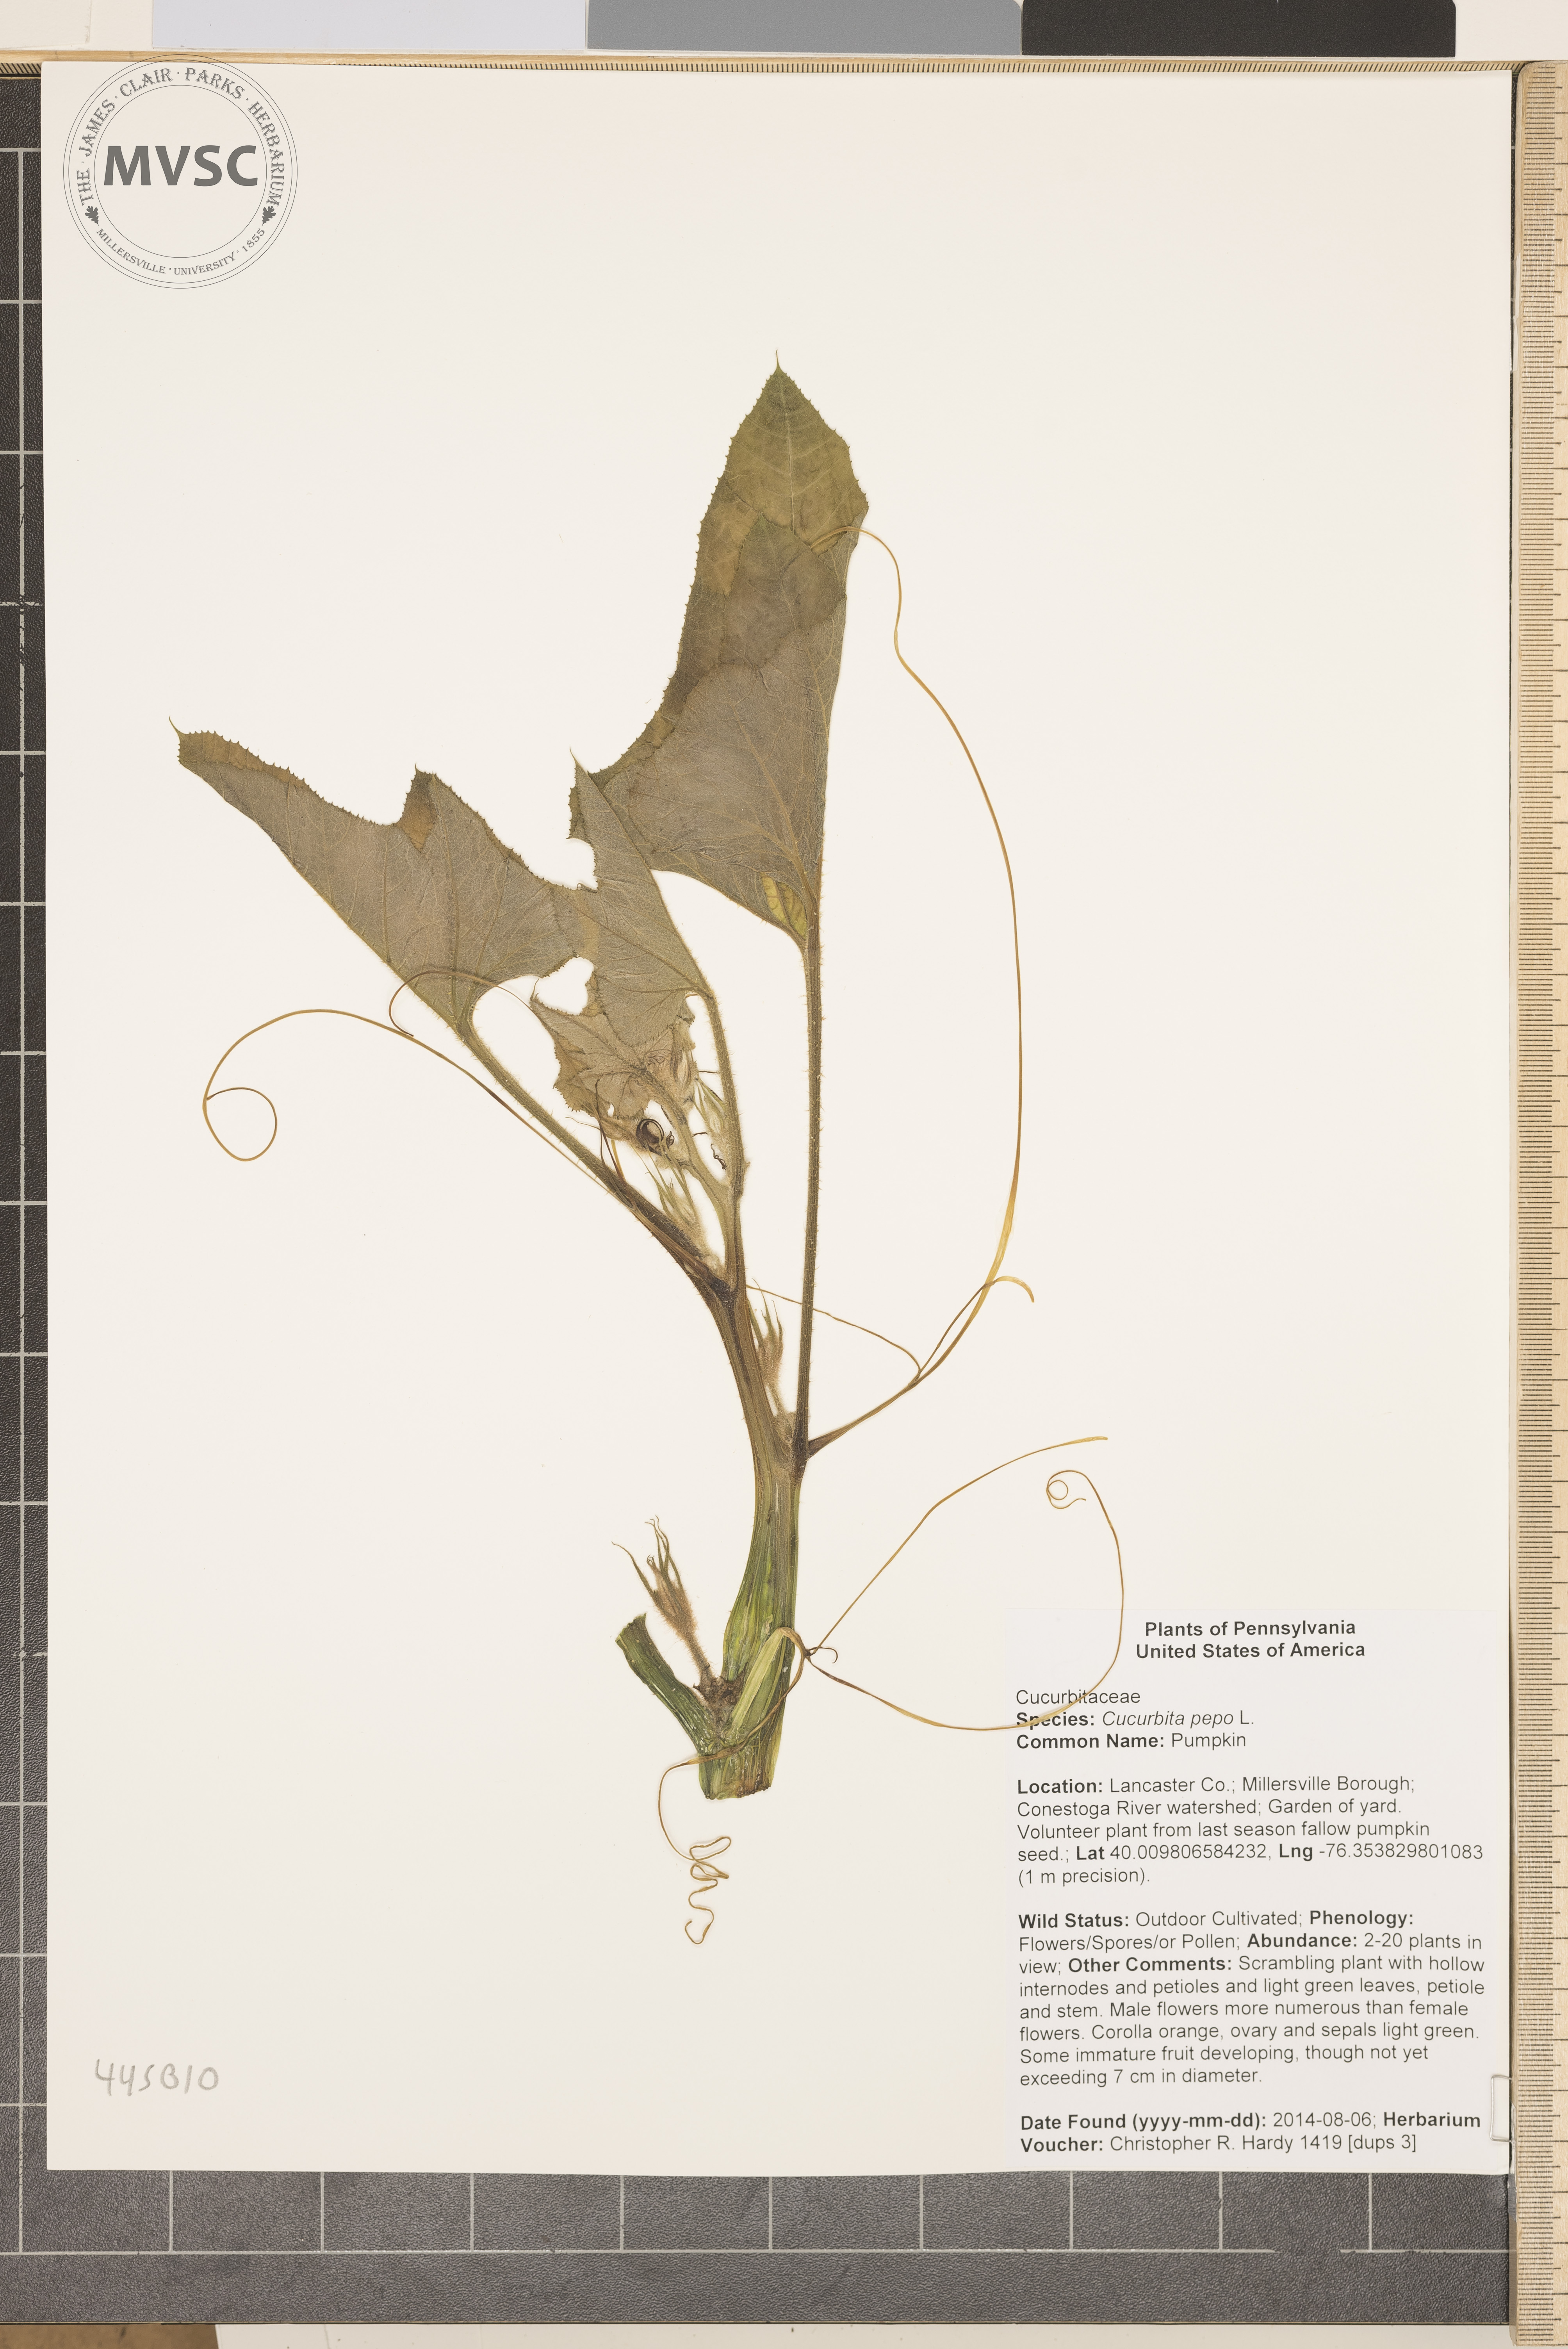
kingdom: Plantae
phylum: Tracheophyta
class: Magnoliopsida
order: Cucurbitales
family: Cucurbitaceae
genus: Cucurbita
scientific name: Cucurbita pepo
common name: Pumpkin
